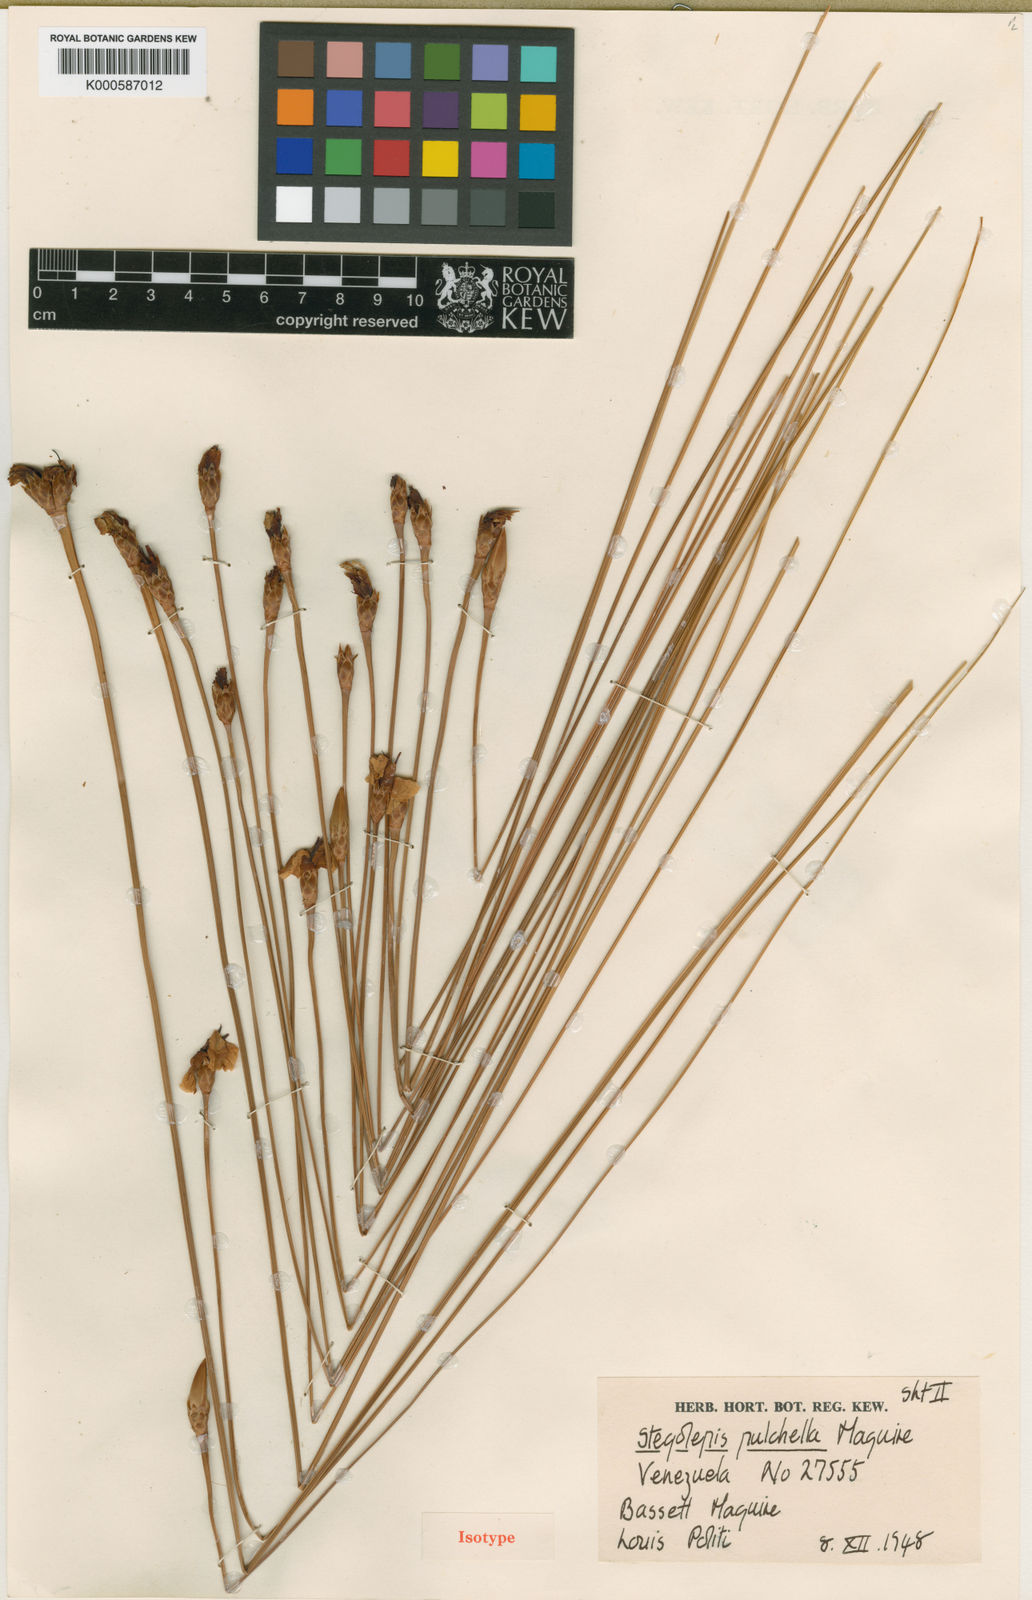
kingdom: Plantae
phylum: Tracheophyta
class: Liliopsida
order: Poales
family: Rapateaceae
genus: Stegolepis
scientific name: Stegolepis pulchella
